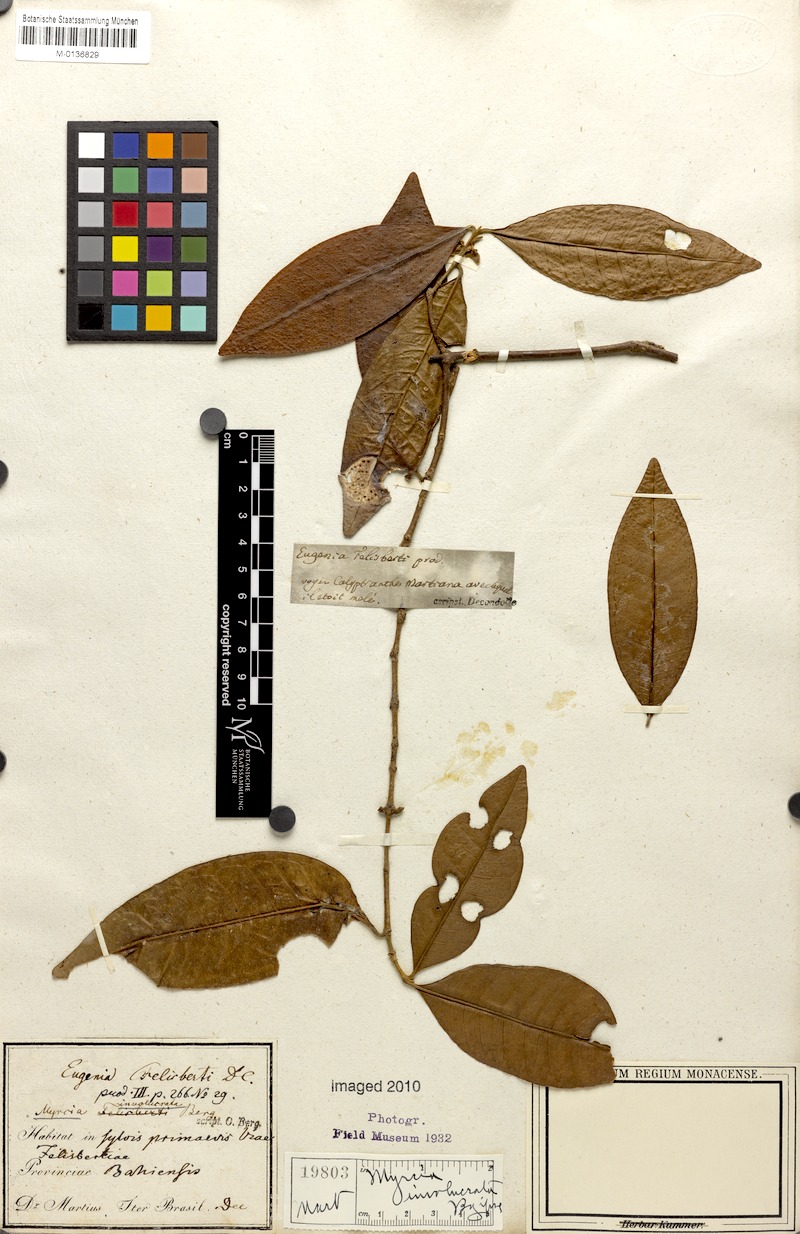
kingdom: Plantae
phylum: Tracheophyta
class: Magnoliopsida
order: Myrtales
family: Myrtaceae
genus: Myrcia
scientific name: Myrcia felisbertii
